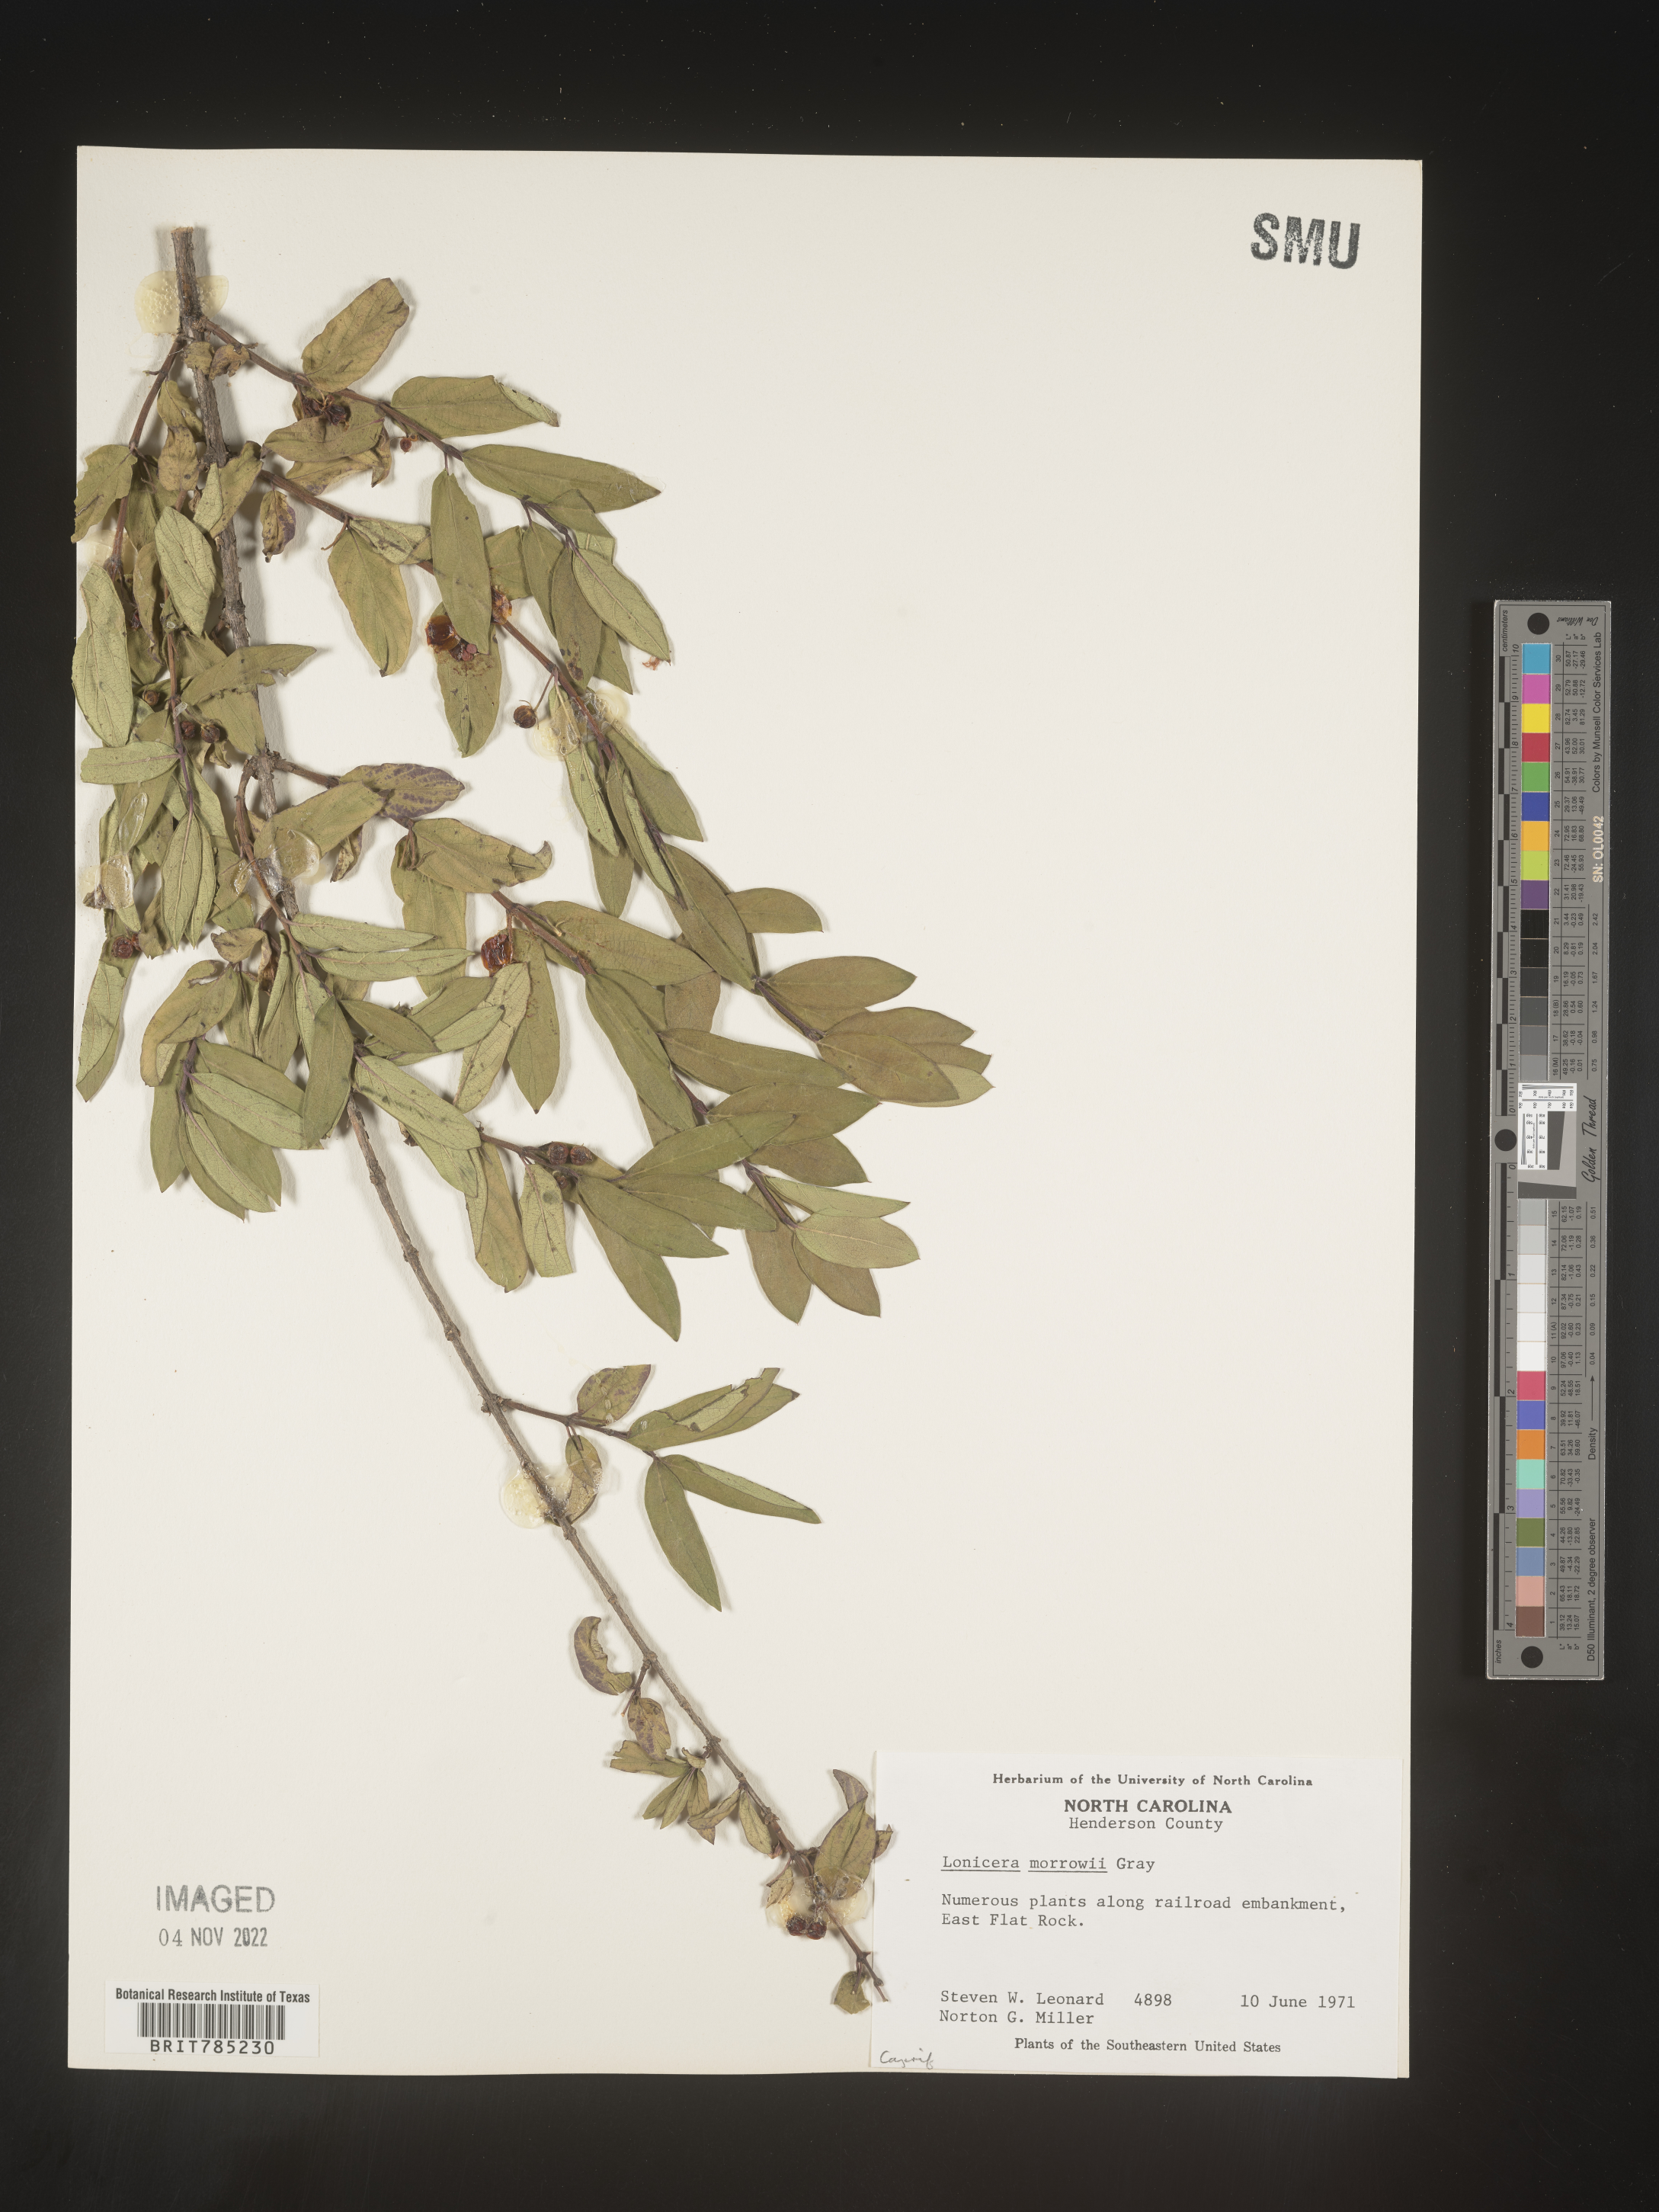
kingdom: Plantae
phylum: Tracheophyta
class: Magnoliopsida
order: Dipsacales
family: Caprifoliaceae
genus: Lonicera
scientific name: Lonicera
